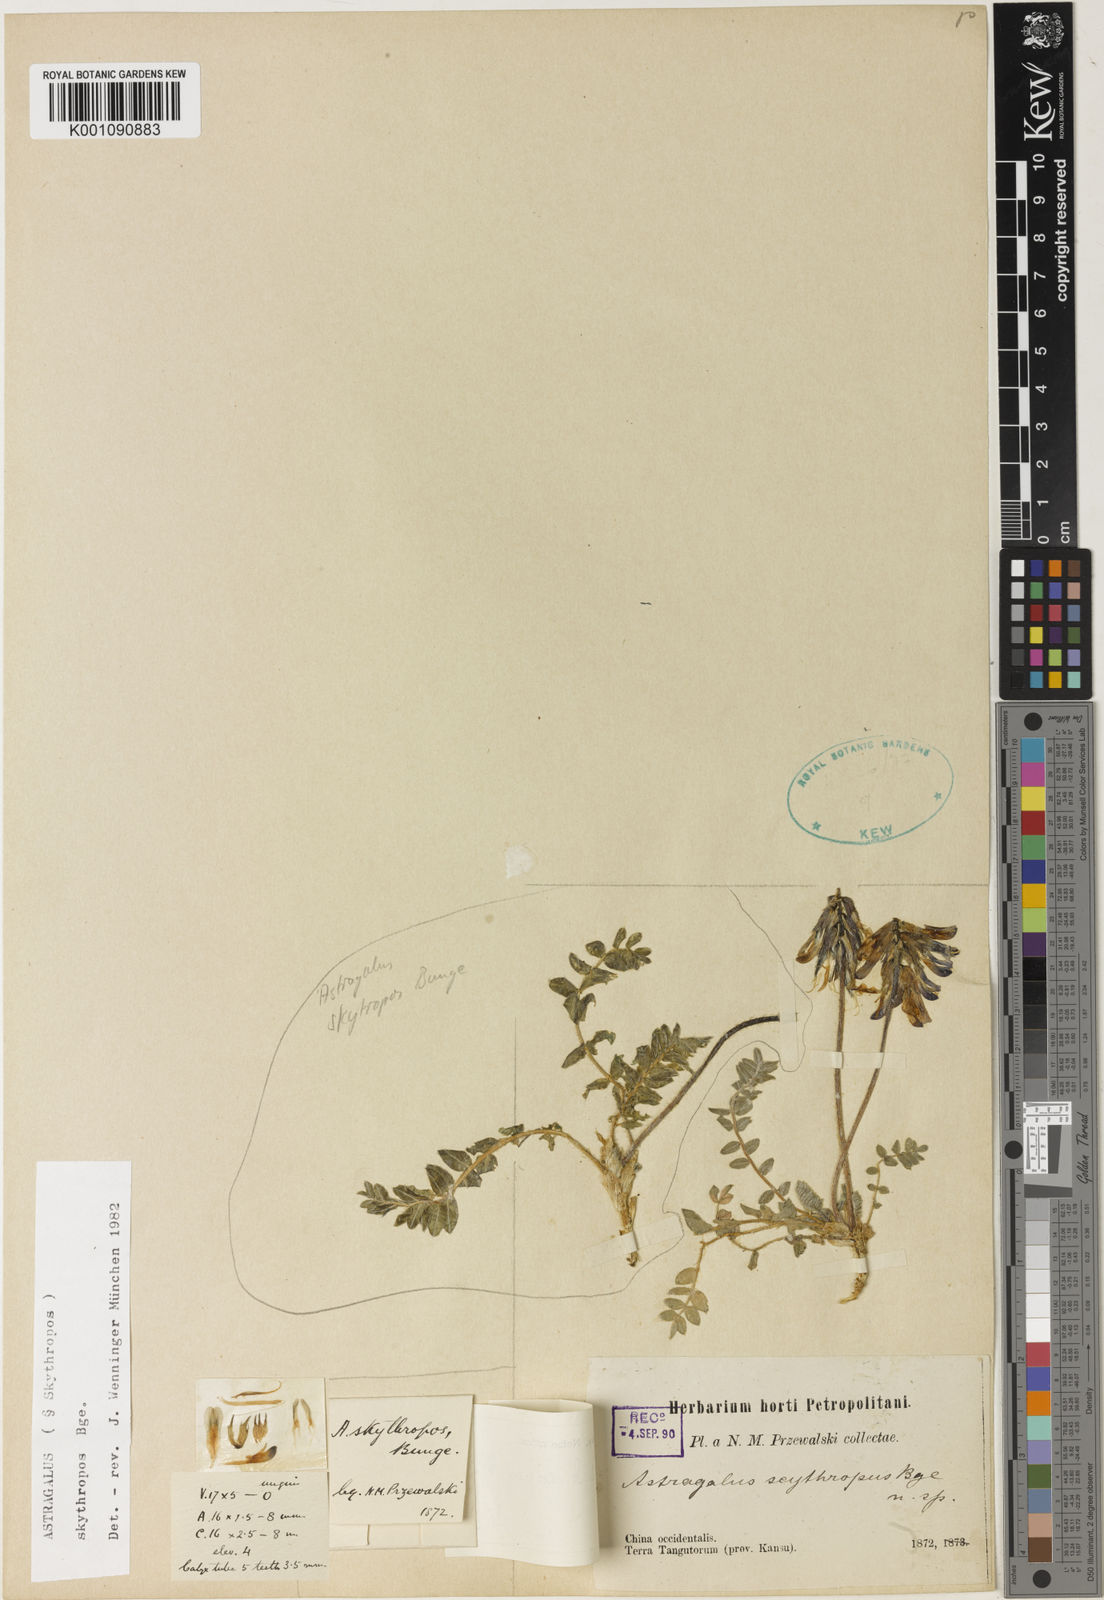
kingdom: Plantae
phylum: Tracheophyta
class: Magnoliopsida
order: Fabales
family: Fabaceae
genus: Astragalus
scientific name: Astragalus
